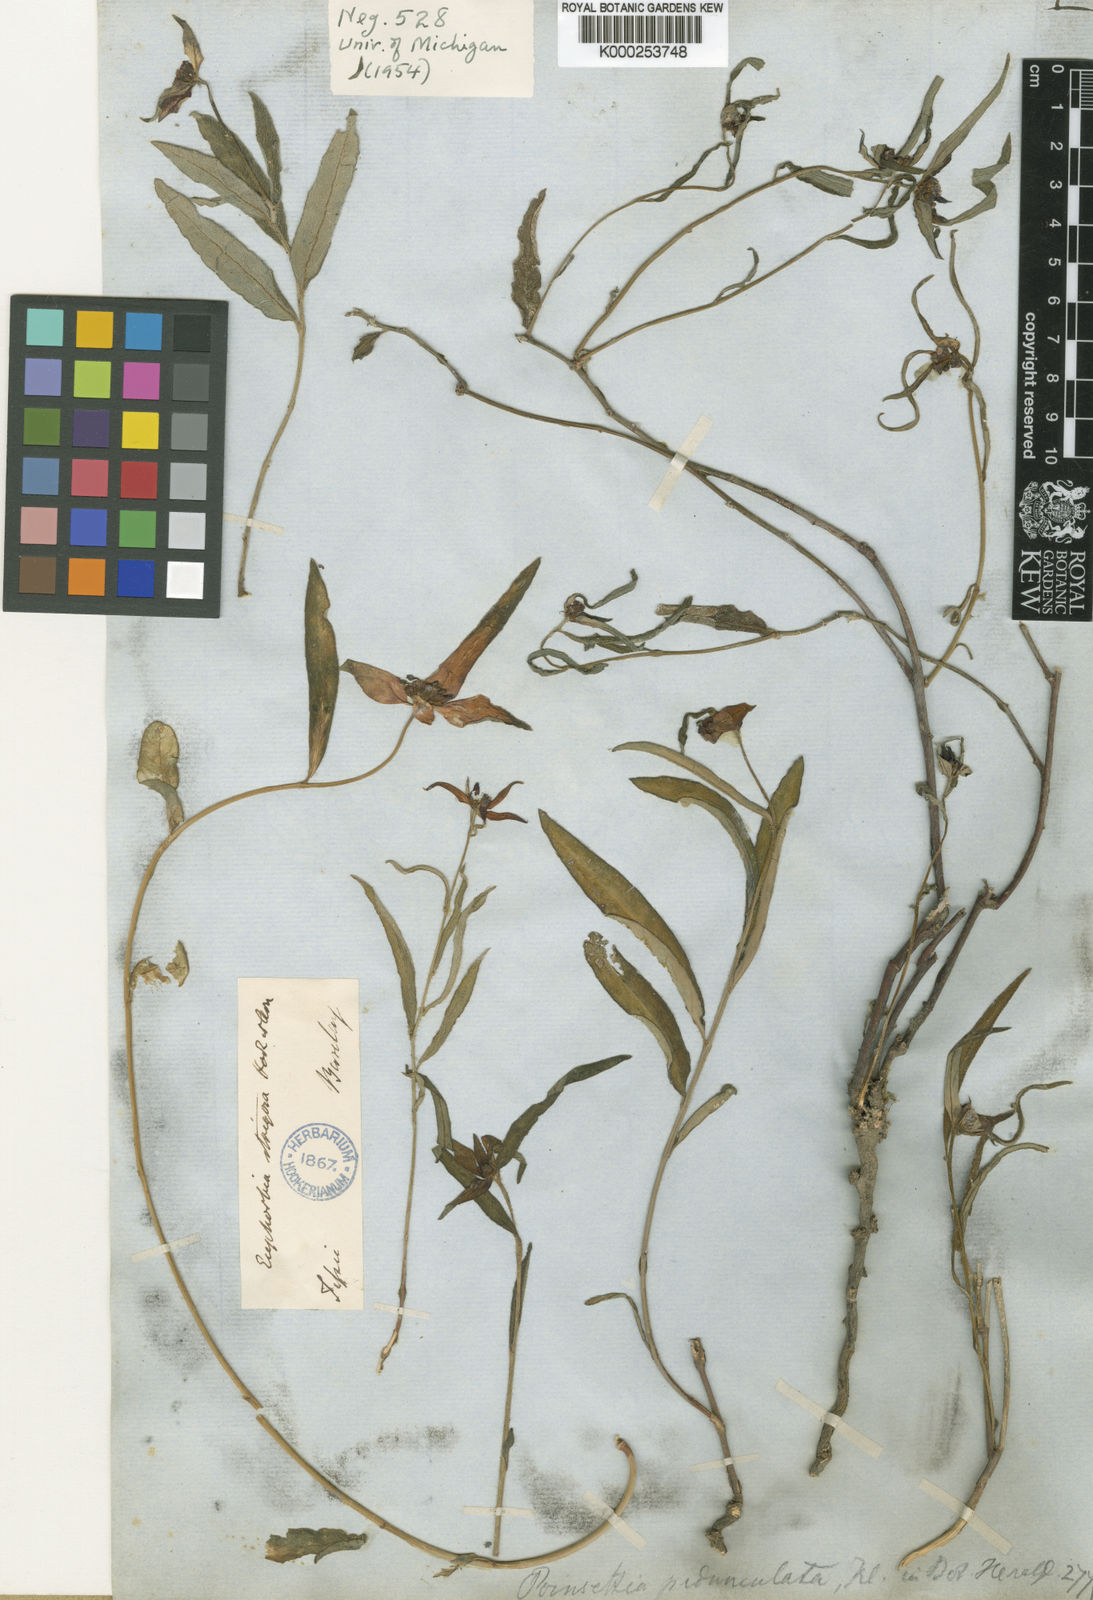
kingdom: Plantae
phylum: Tracheophyta
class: Magnoliopsida
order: Malpighiales
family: Euphorbiaceae
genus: Euphorbia
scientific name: Euphorbia strigosa
